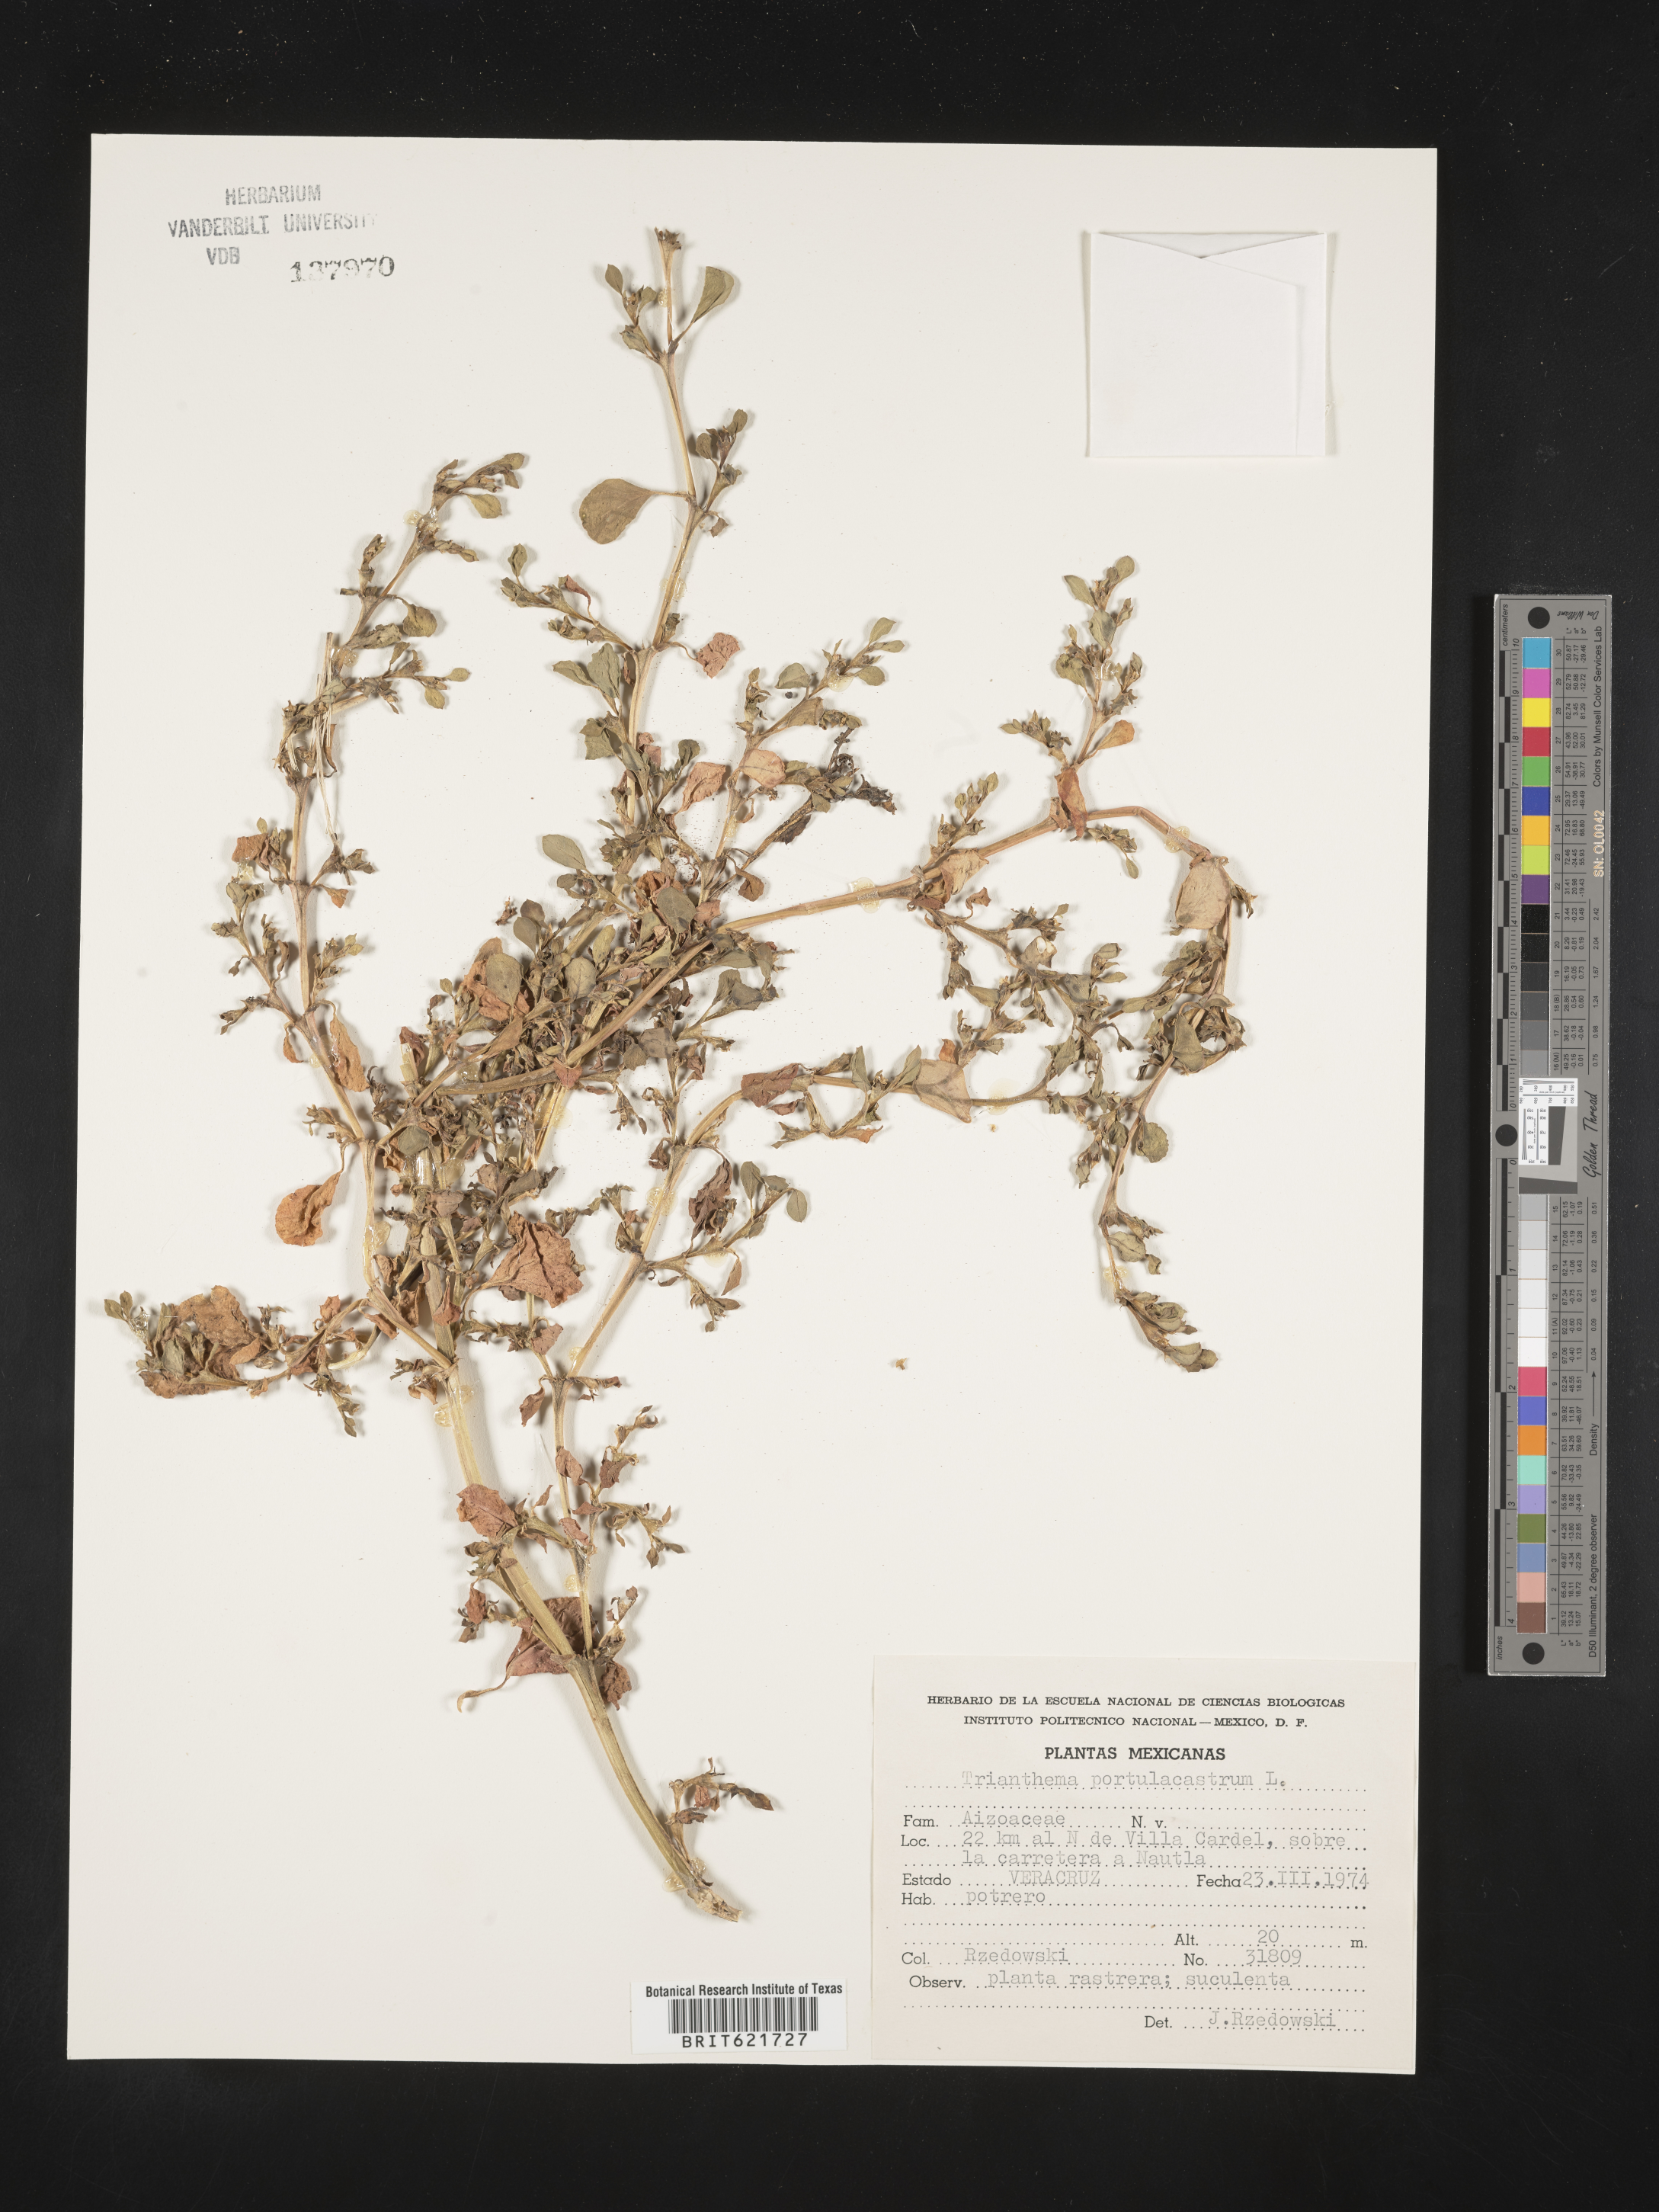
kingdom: Plantae
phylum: Tracheophyta
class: Magnoliopsida
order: Caryophyllales
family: Aizoaceae
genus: Trianthema
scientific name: Trianthema
